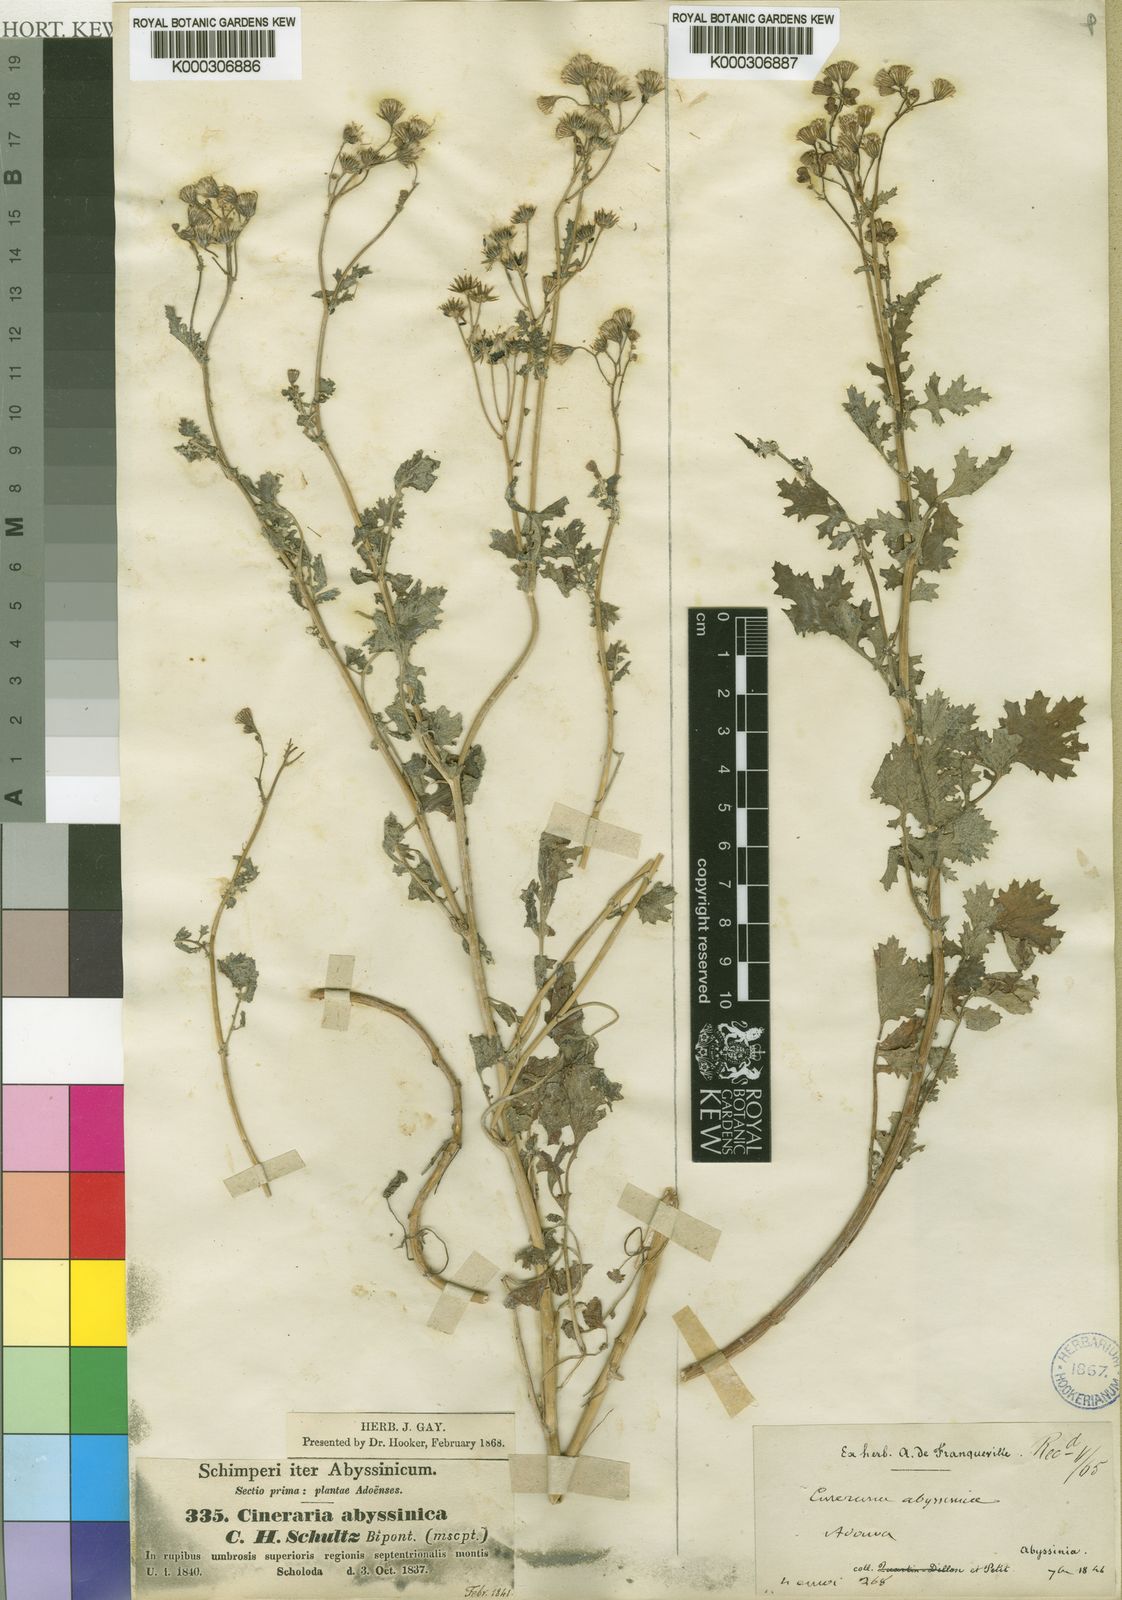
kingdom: Plantae
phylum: Tracheophyta
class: Magnoliopsida
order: Asterales
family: Asteraceae
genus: Cineraria
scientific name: Cineraria abyssinica
